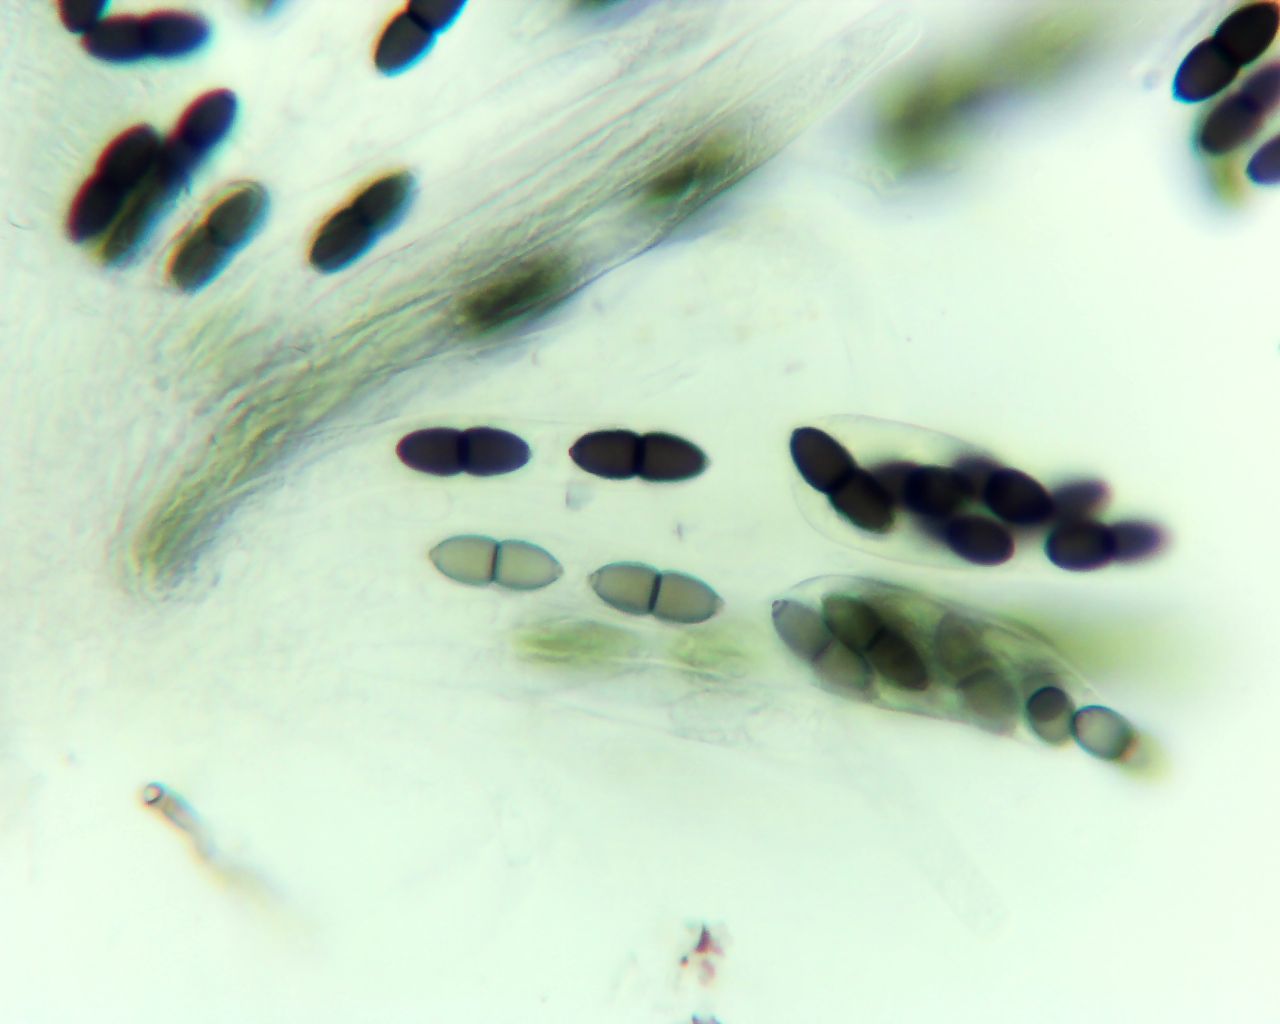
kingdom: Fungi
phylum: Ascomycota
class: Dothideomycetes
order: Phaeotrichales
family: Phaeotrichaceae
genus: Trichodelitschia
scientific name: Trichodelitschia bisporula
